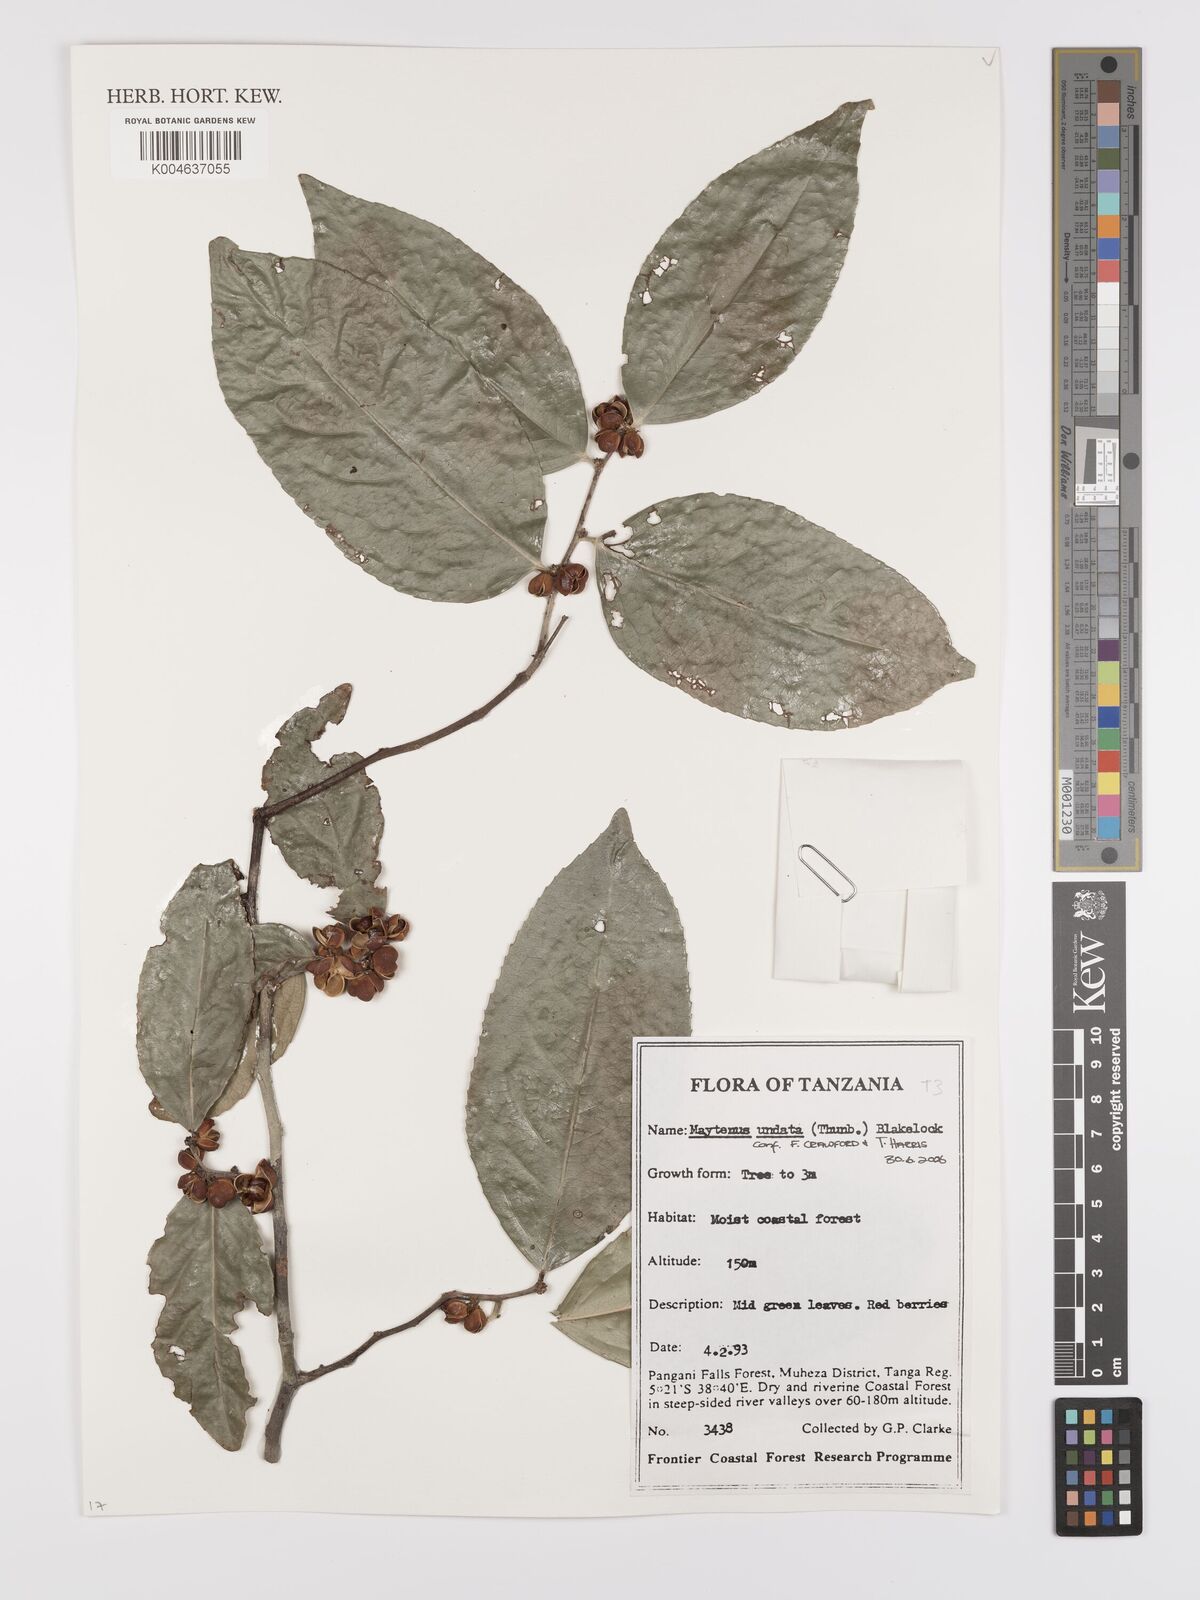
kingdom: Plantae
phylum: Tracheophyta
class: Magnoliopsida
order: Celastrales
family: Celastraceae
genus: Gymnosporia
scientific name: Gymnosporia undata
